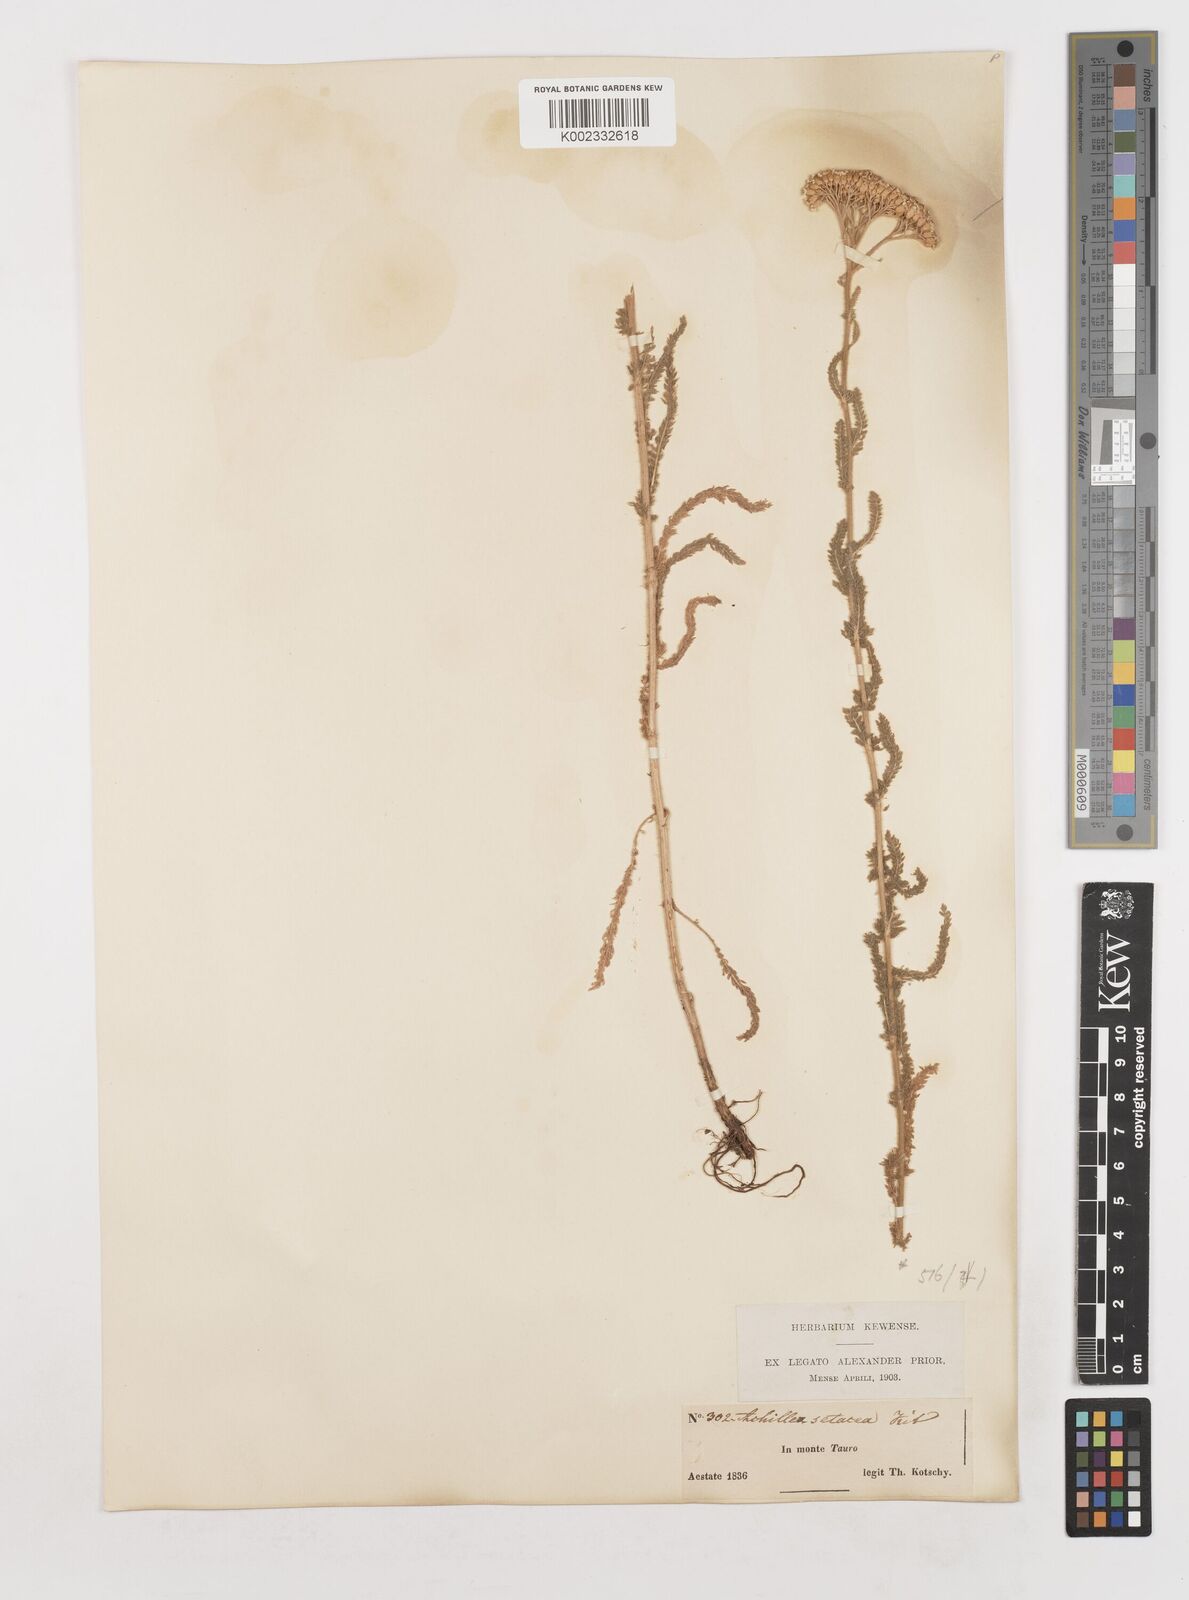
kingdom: Plantae
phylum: Tracheophyta
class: Magnoliopsida
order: Asterales
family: Asteraceae
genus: Achillea
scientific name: Achillea setacea
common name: Bristly yarrow
